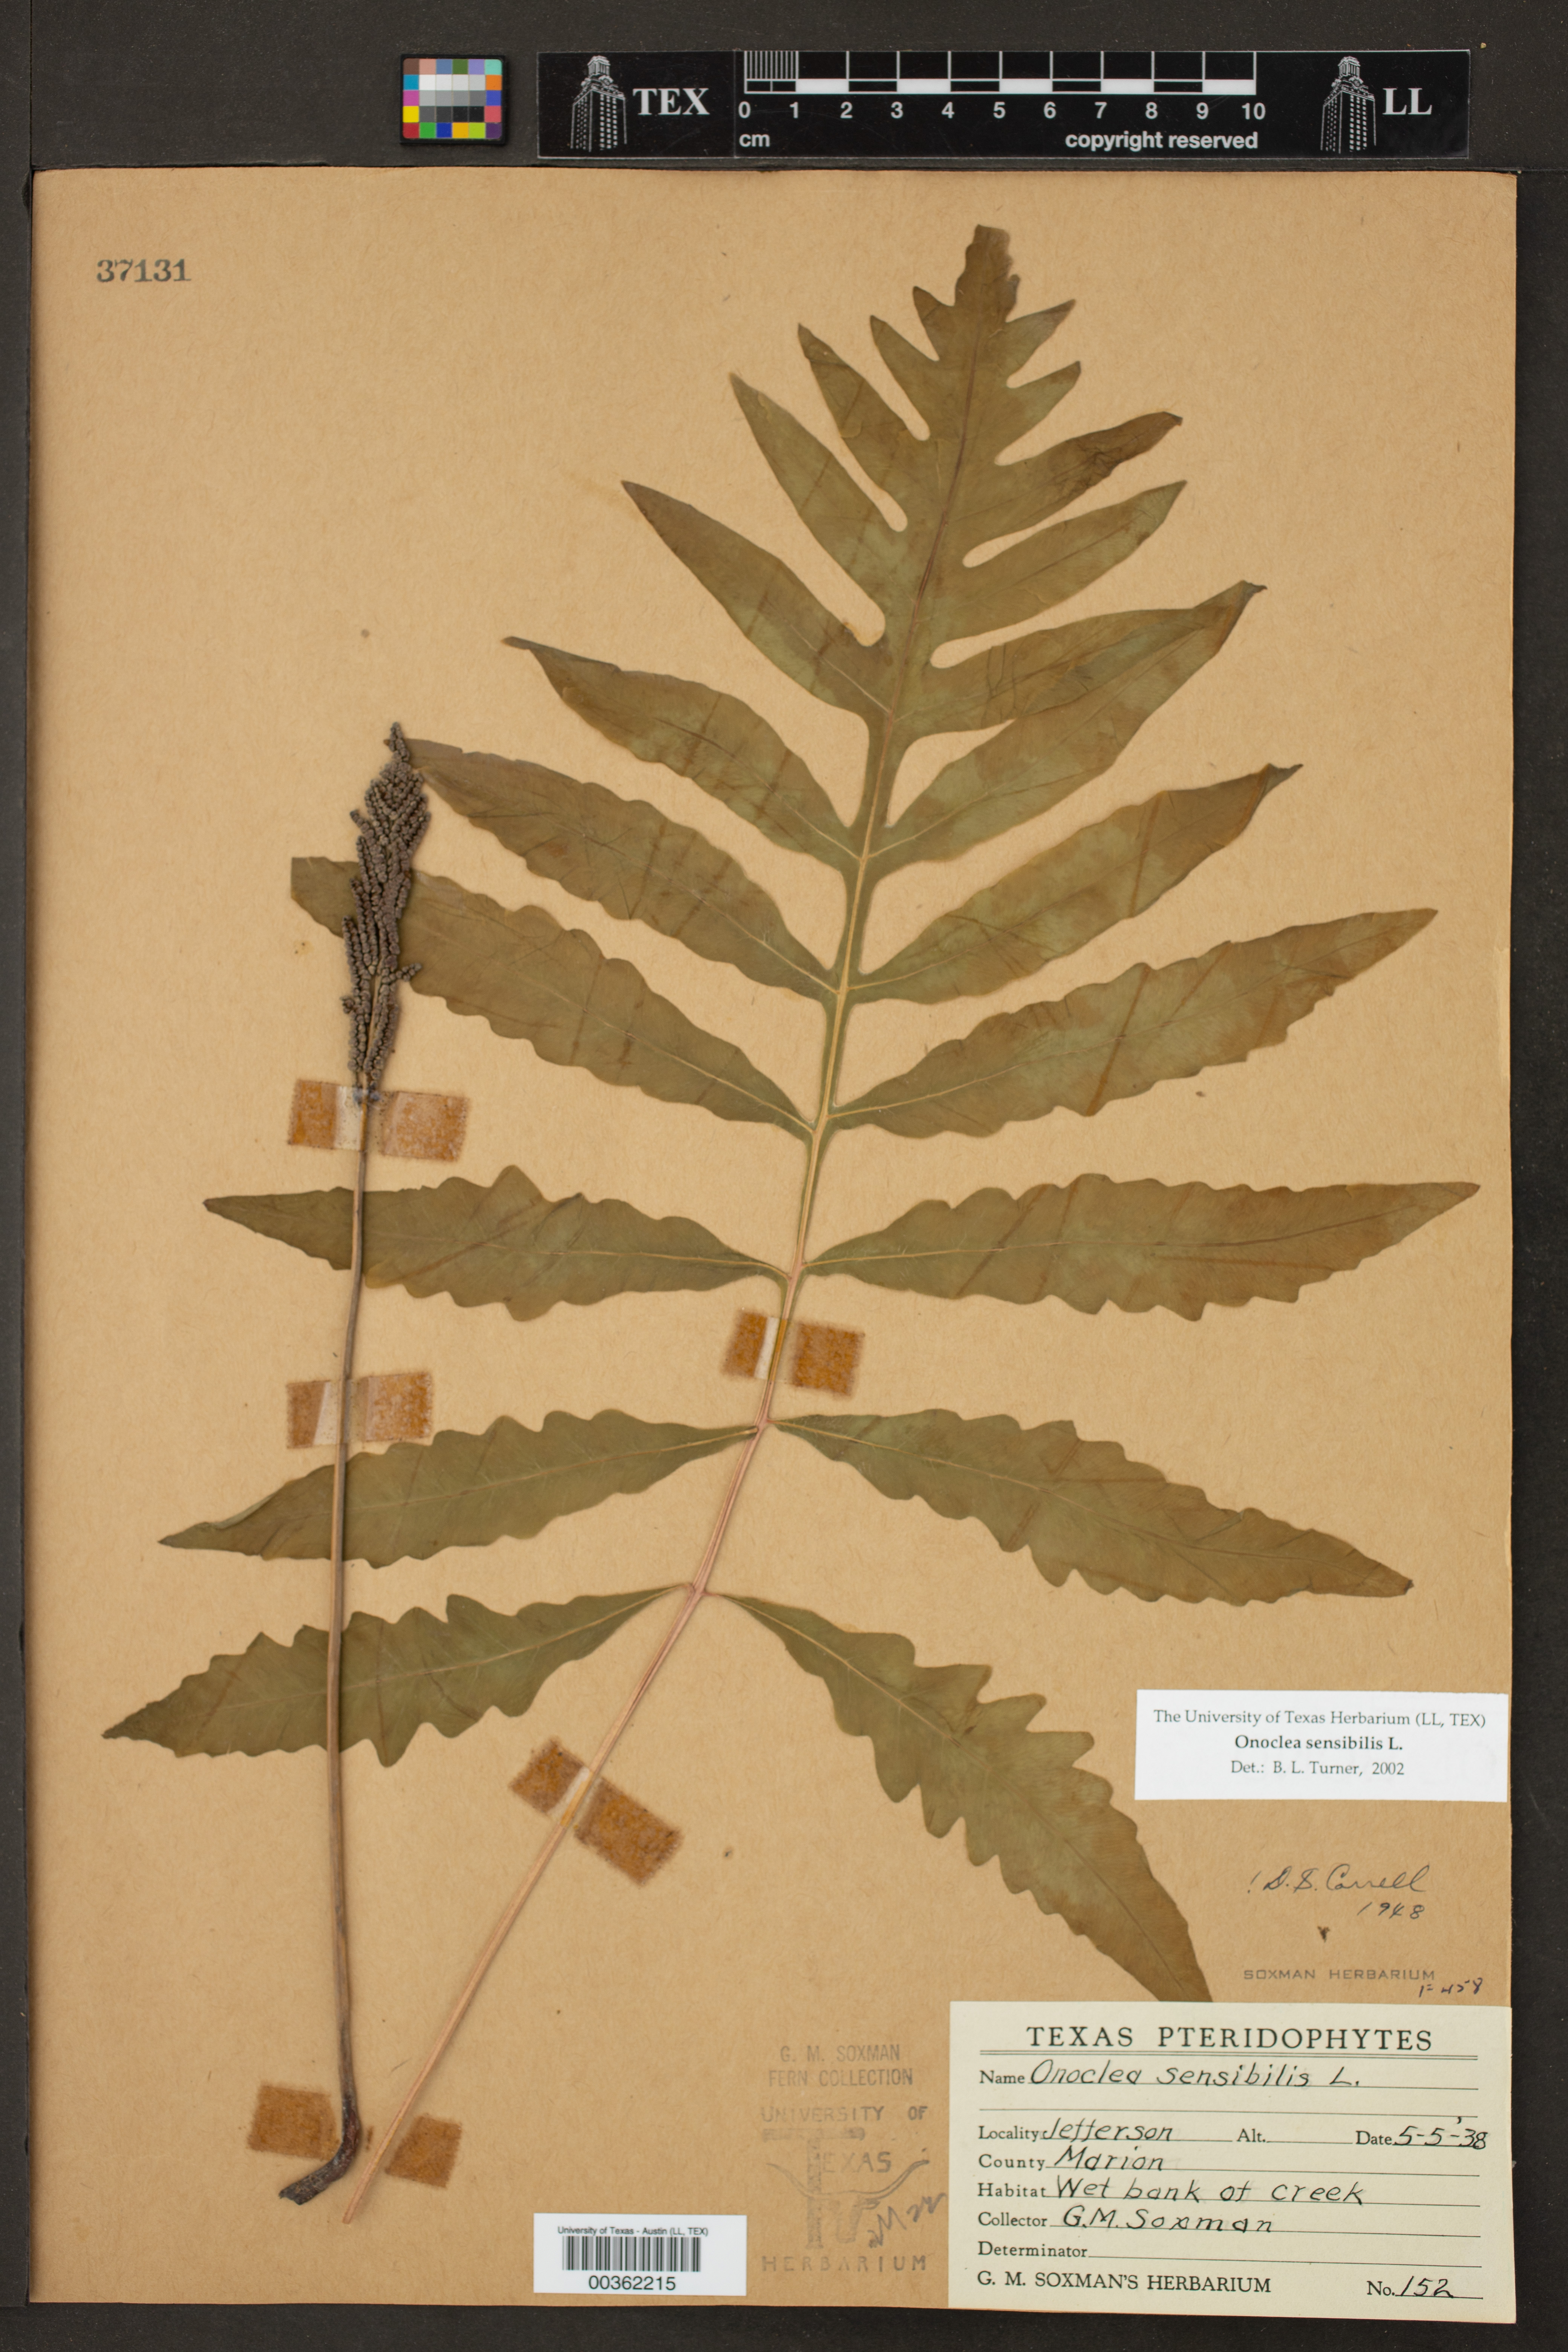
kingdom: Plantae
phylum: Tracheophyta
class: Polypodiopsida
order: Polypodiales
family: Onocleaceae
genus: Onoclea
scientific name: Onoclea sensibilis
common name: Sensitive fern
